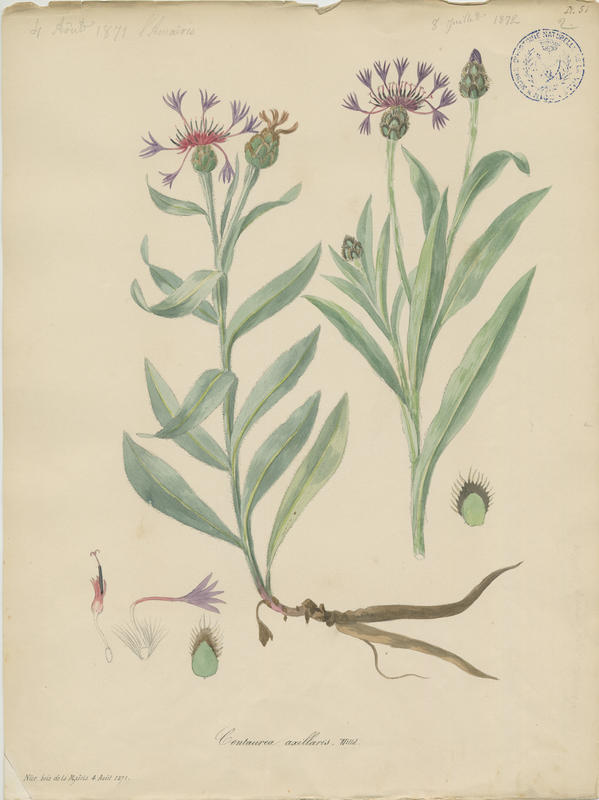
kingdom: Plantae
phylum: Tracheophyta
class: Magnoliopsida
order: Asterales
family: Asteraceae
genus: Centaurea
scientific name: Centaurea triumfettii
